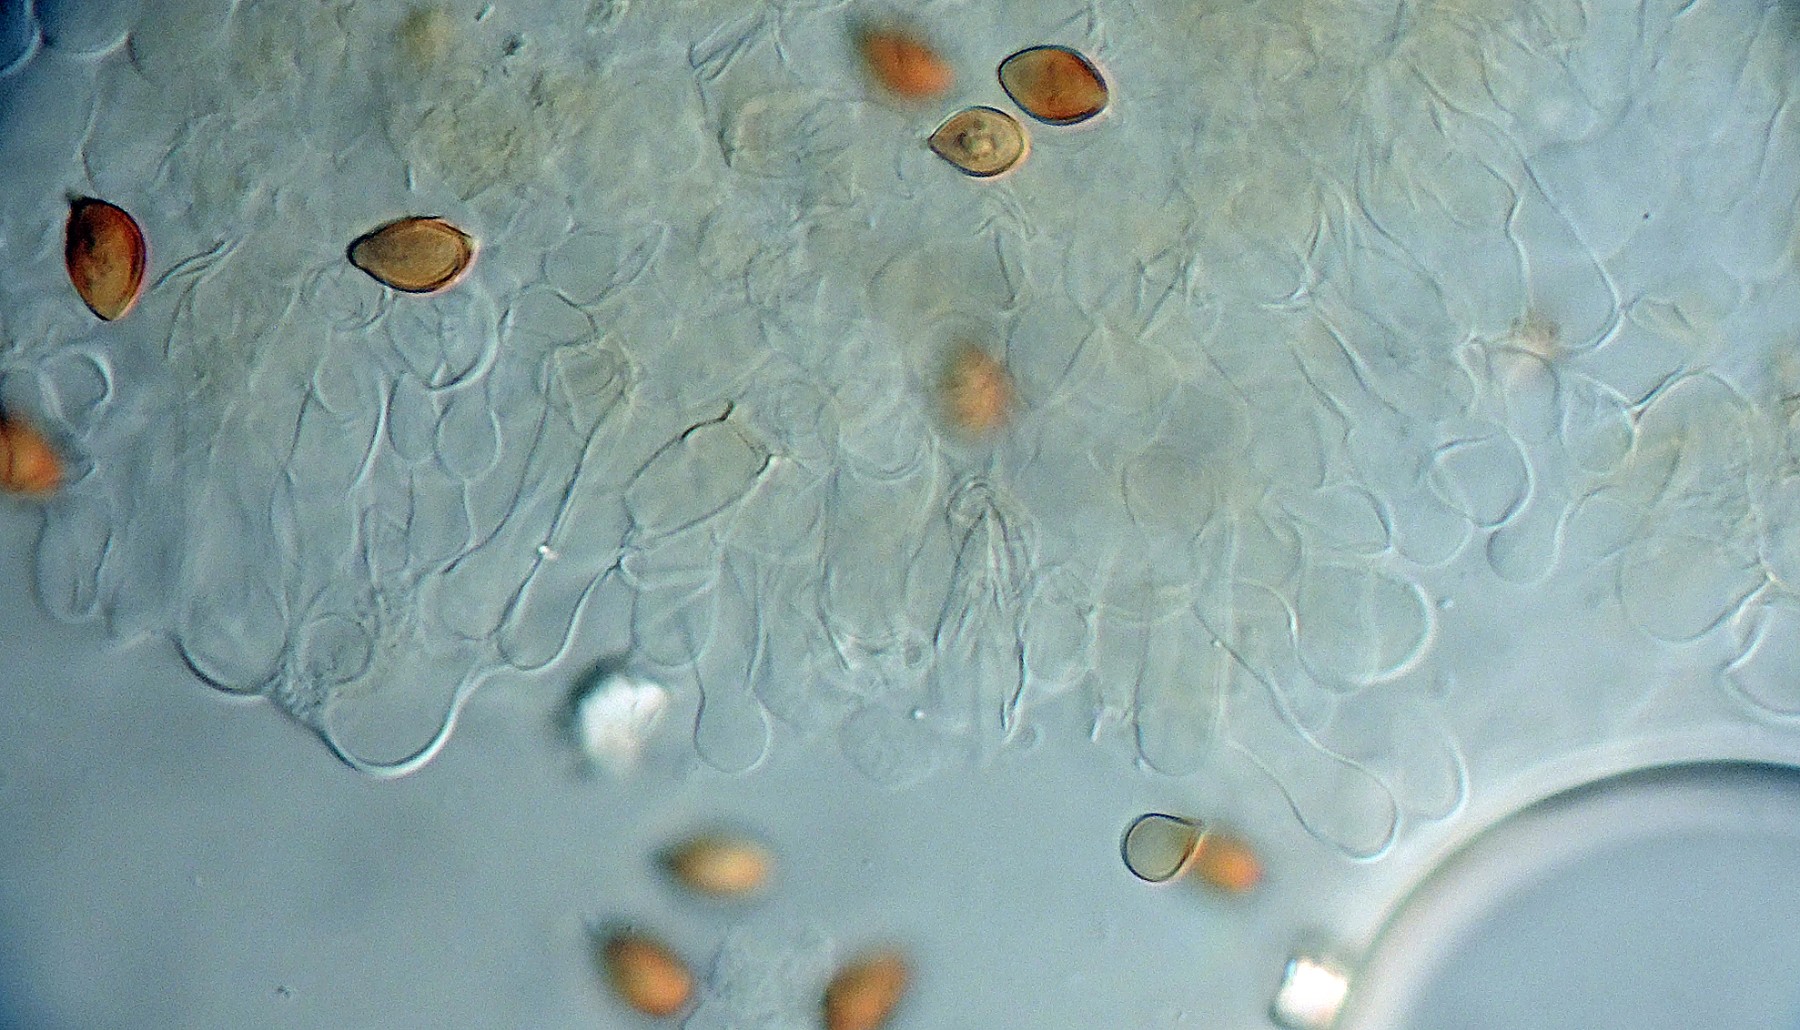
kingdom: Fungi
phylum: Basidiomycota
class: Agaricomycetes
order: Agaricales
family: Hymenogastraceae
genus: Galerina
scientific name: Galerina sphagnicola
